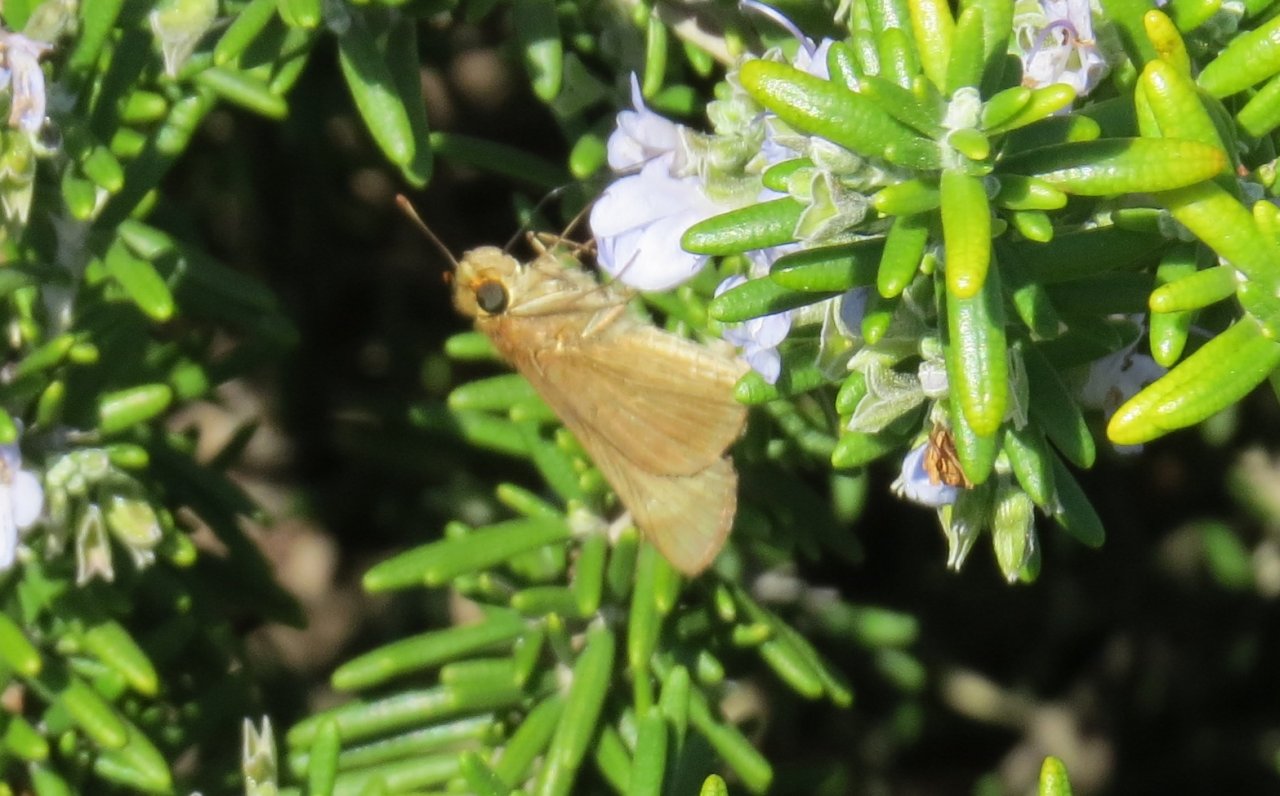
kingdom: Animalia
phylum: Arthropoda
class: Insecta
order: Lepidoptera
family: Hesperiidae
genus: Panoquina
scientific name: Panoquina ocola
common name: Ocola Skipper
